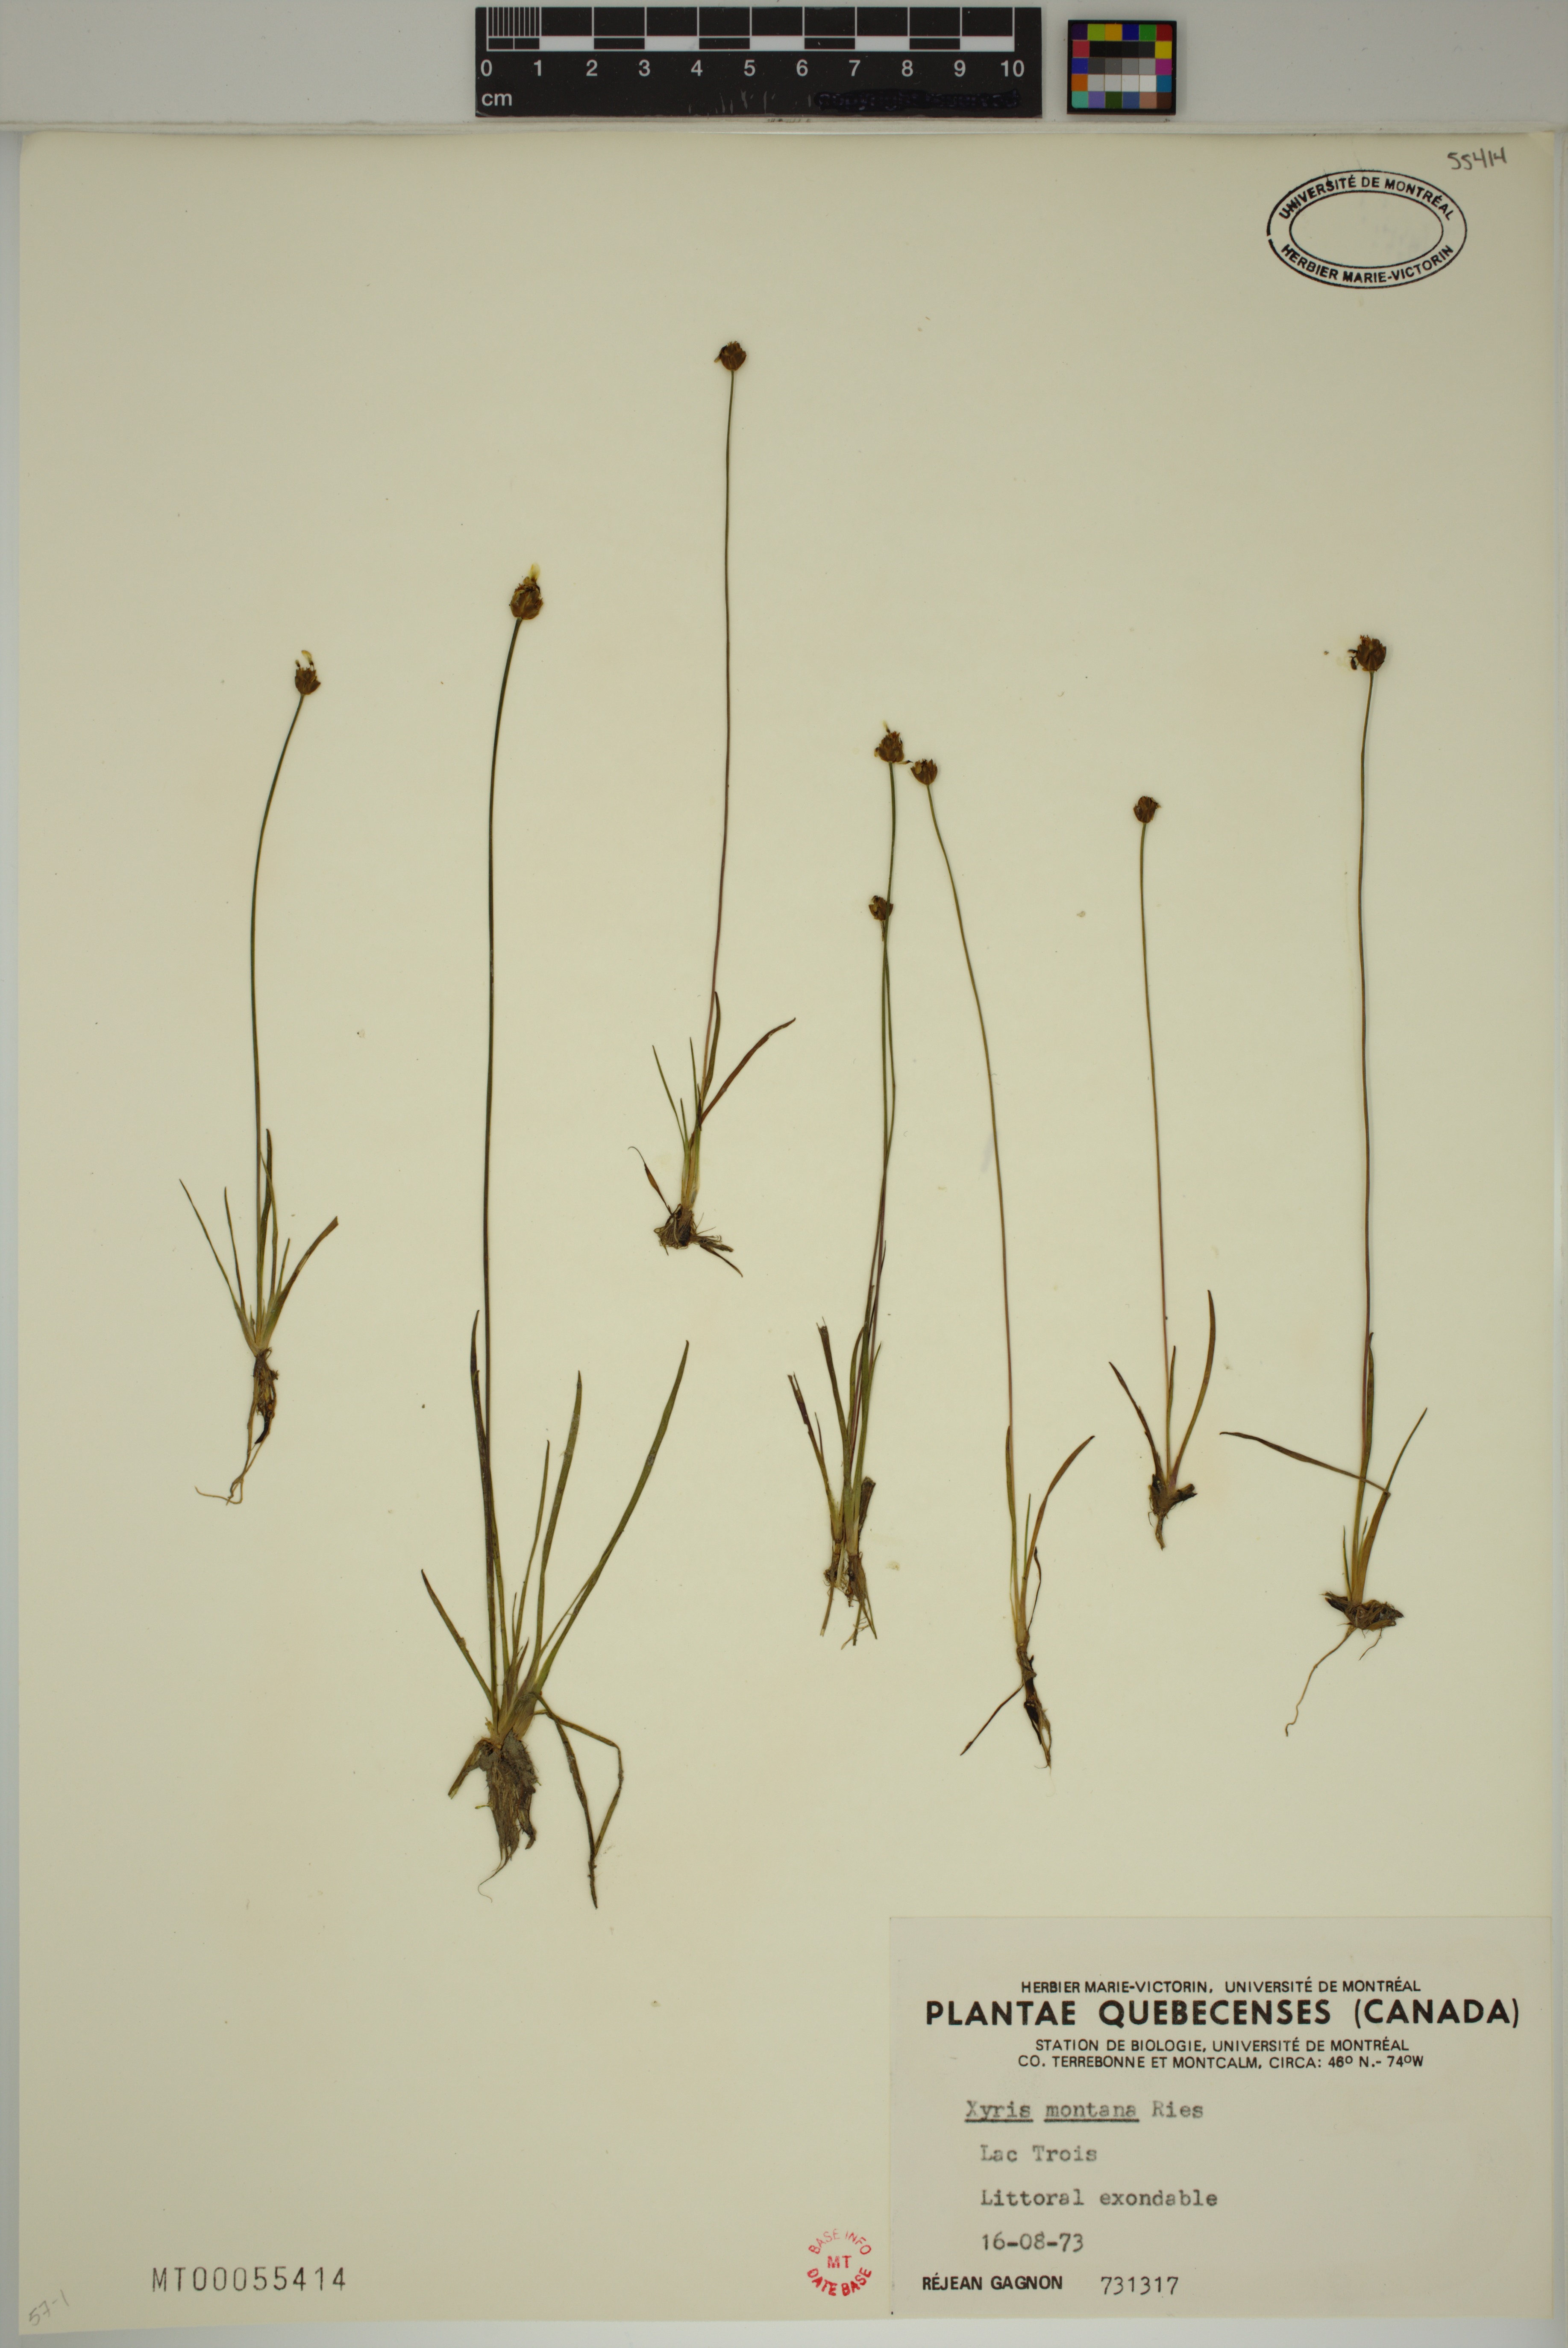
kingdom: Plantae
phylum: Tracheophyta
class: Liliopsida
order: Poales
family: Xyridaceae
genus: Xyris
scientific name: Xyris montana
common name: Northern yellow-eyed-grass
